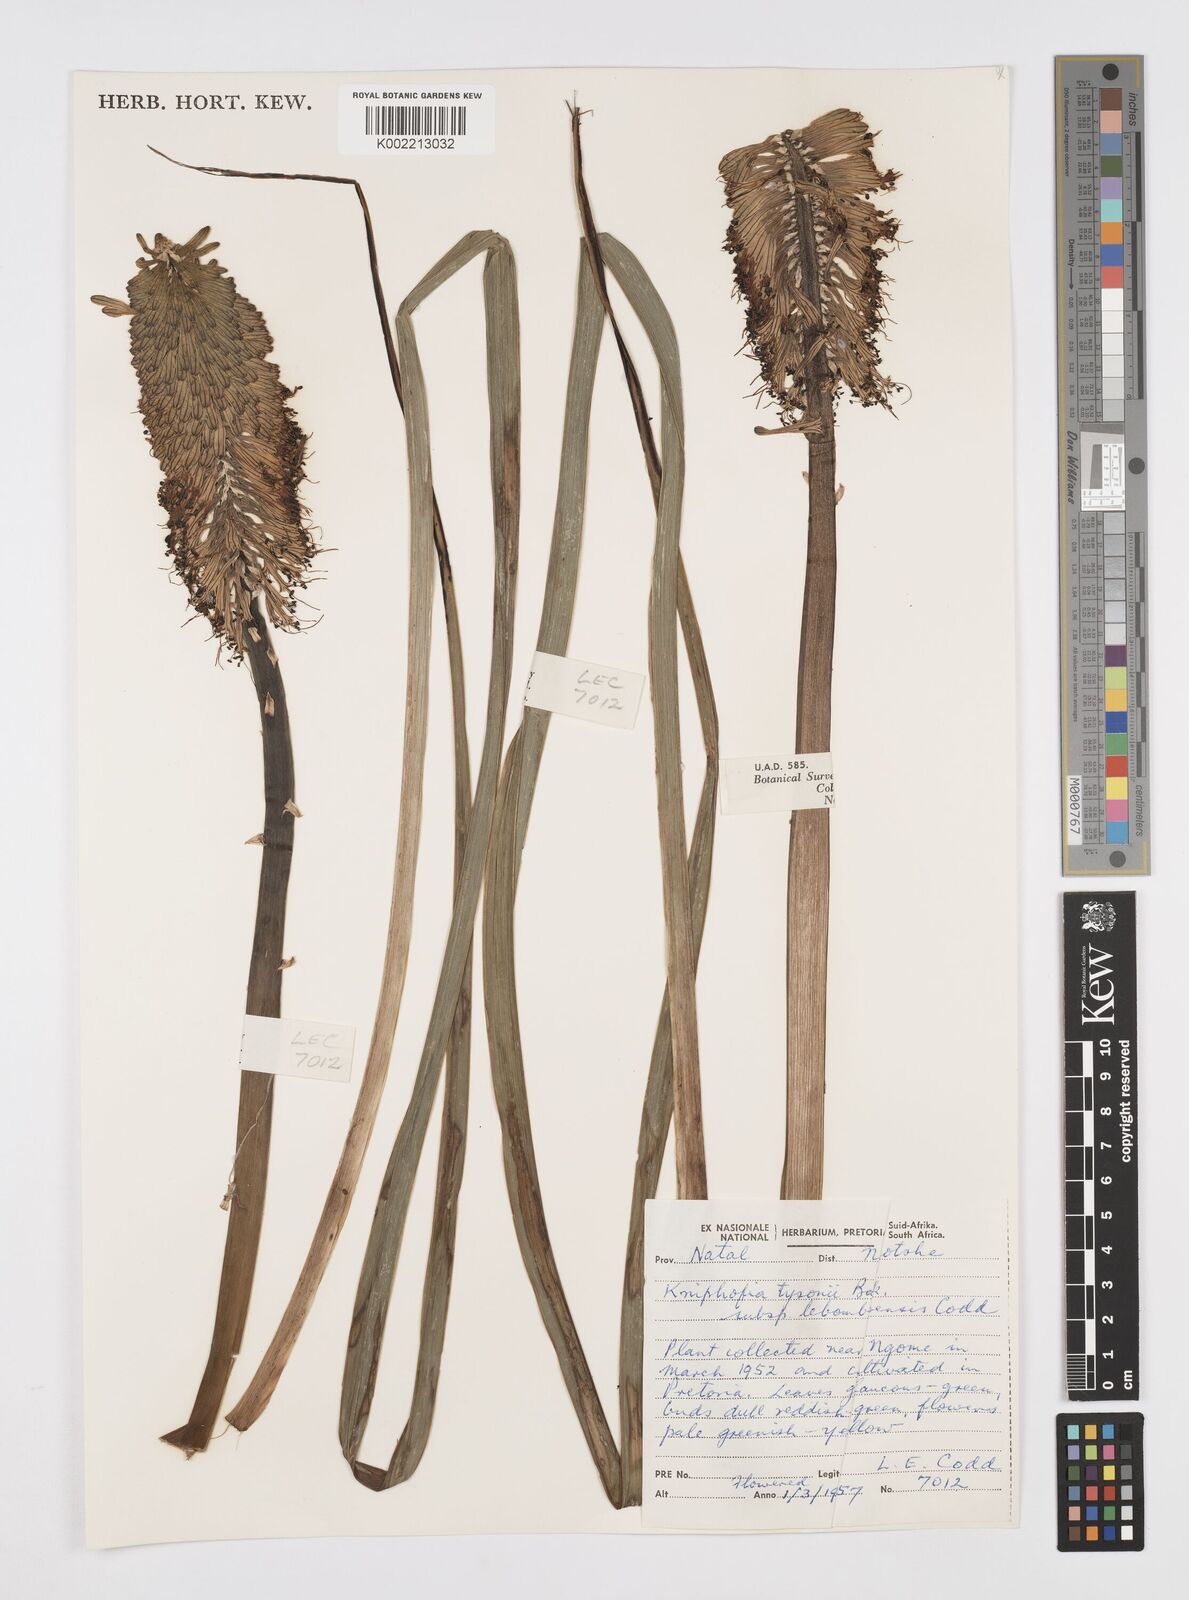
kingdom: Plantae
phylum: Tracheophyta
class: Liliopsida
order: Asparagales
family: Asphodelaceae
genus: Kniphofia
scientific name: Kniphofia tysonii
